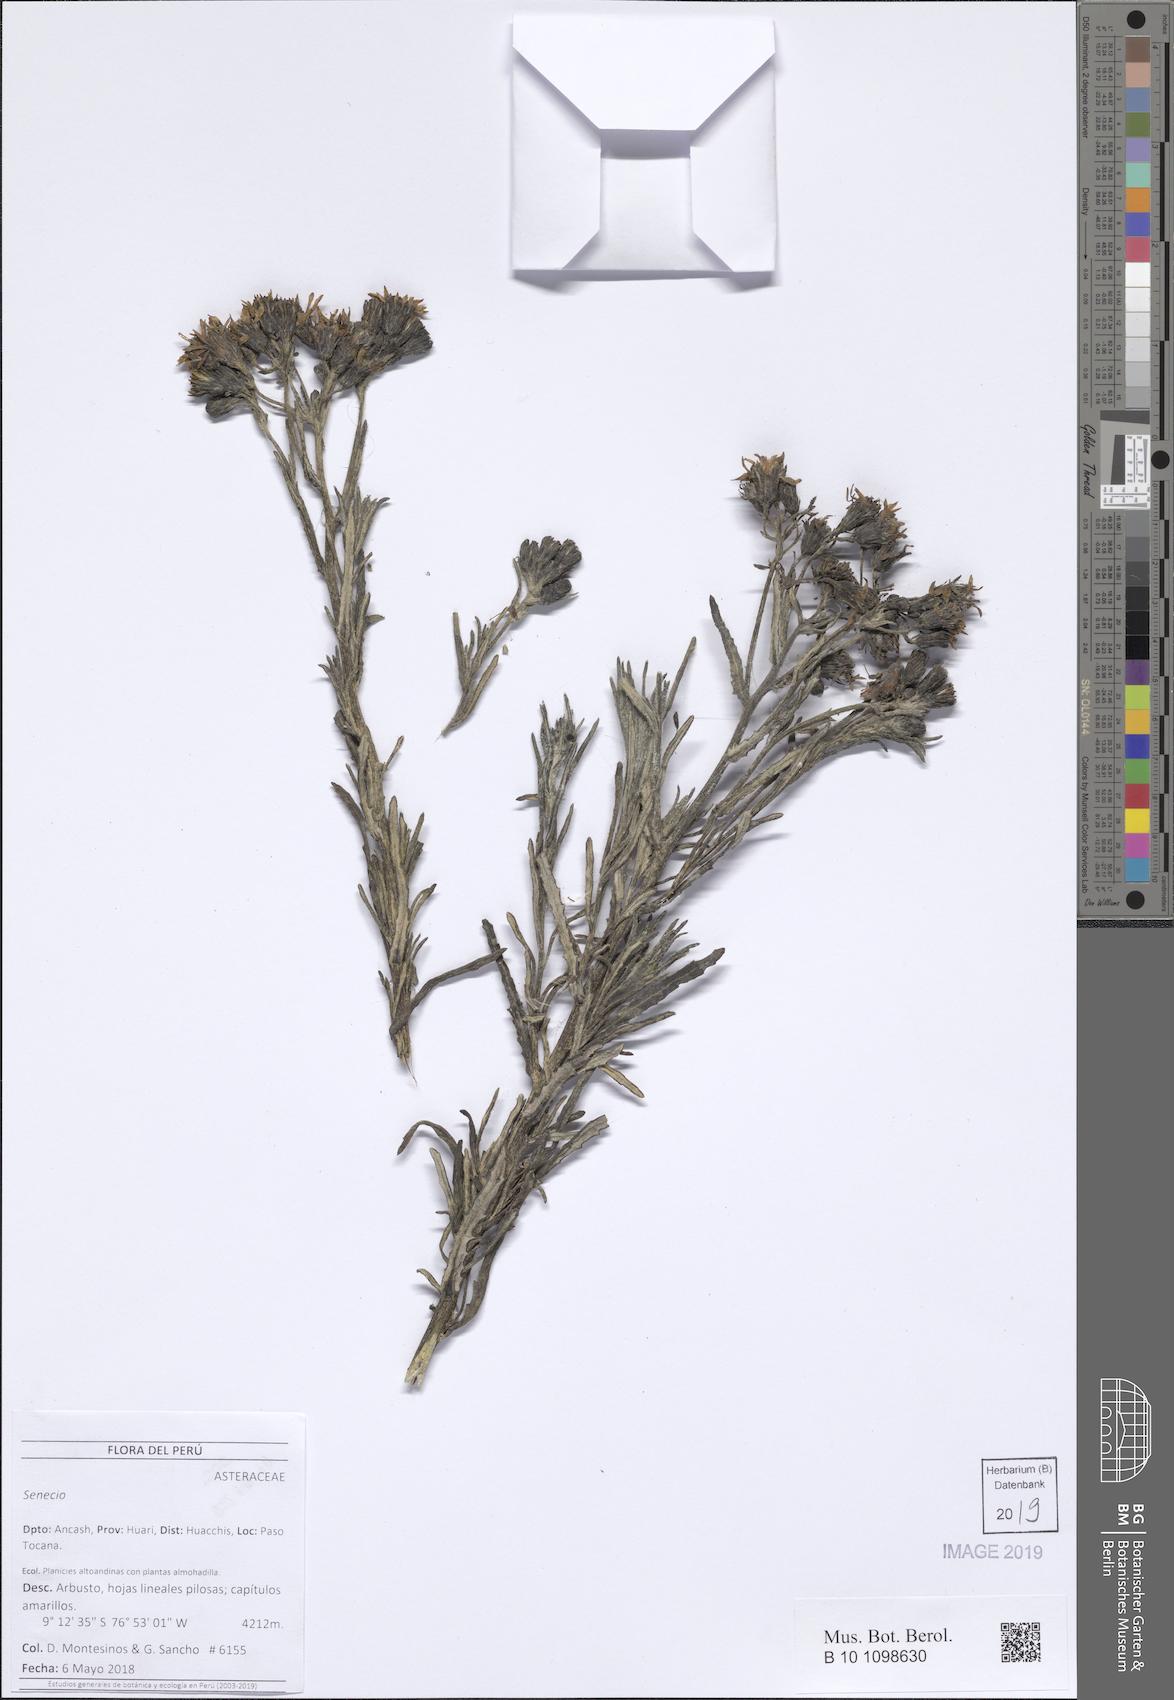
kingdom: Plantae
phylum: Tracheophyta
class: Magnoliopsida
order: Asterales
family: Asteraceae
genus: Senecio
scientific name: Senecio ancashinus
